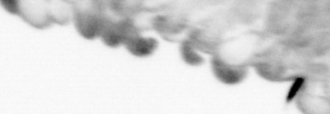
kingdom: Animalia
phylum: Arthropoda
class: Copepoda
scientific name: Copepoda
